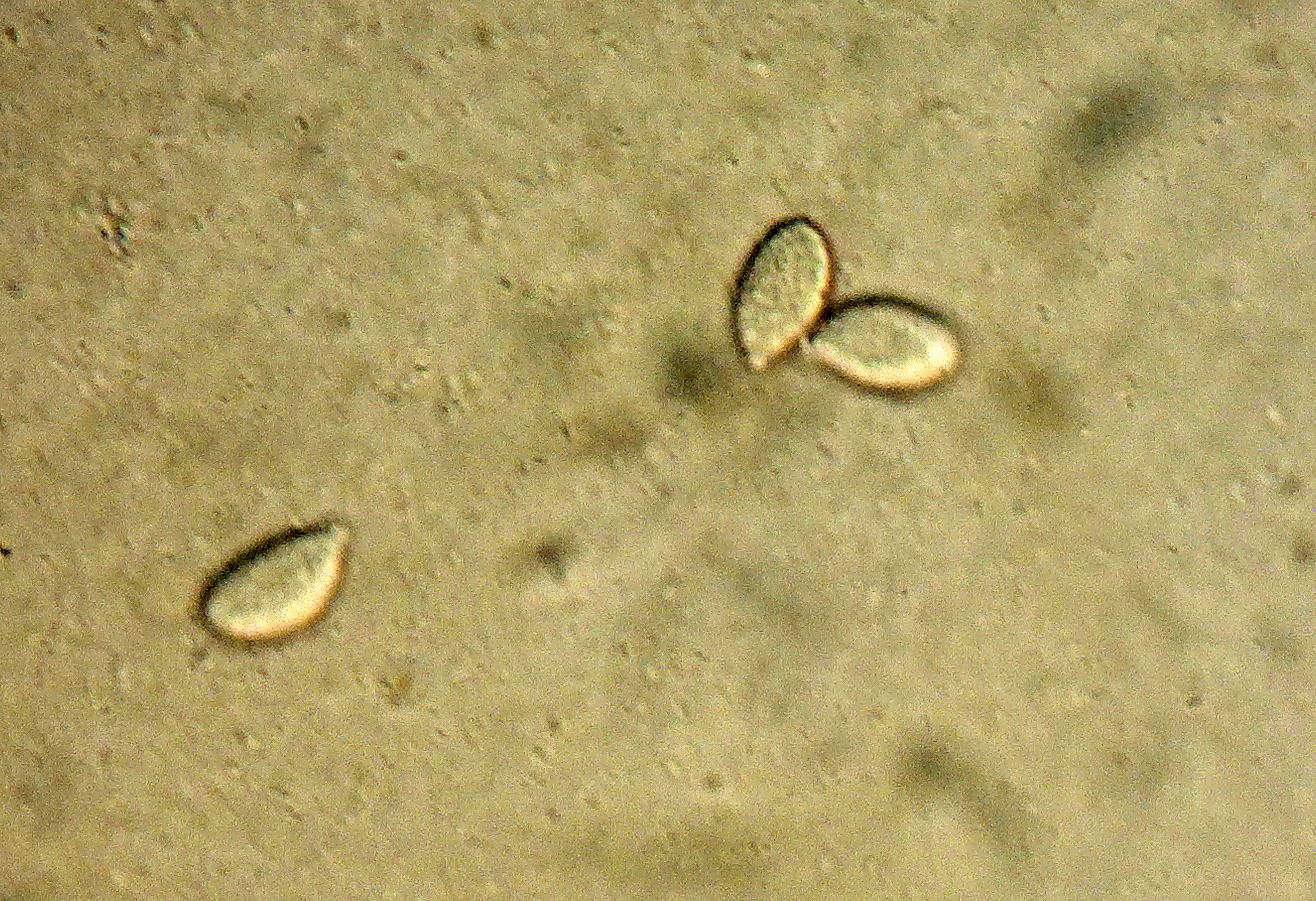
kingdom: Fungi
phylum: Basidiomycota
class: Agaricomycetes
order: Agaricales
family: Radulomycetaceae
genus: Aphanobasidium
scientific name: Aphanobasidium aurora
